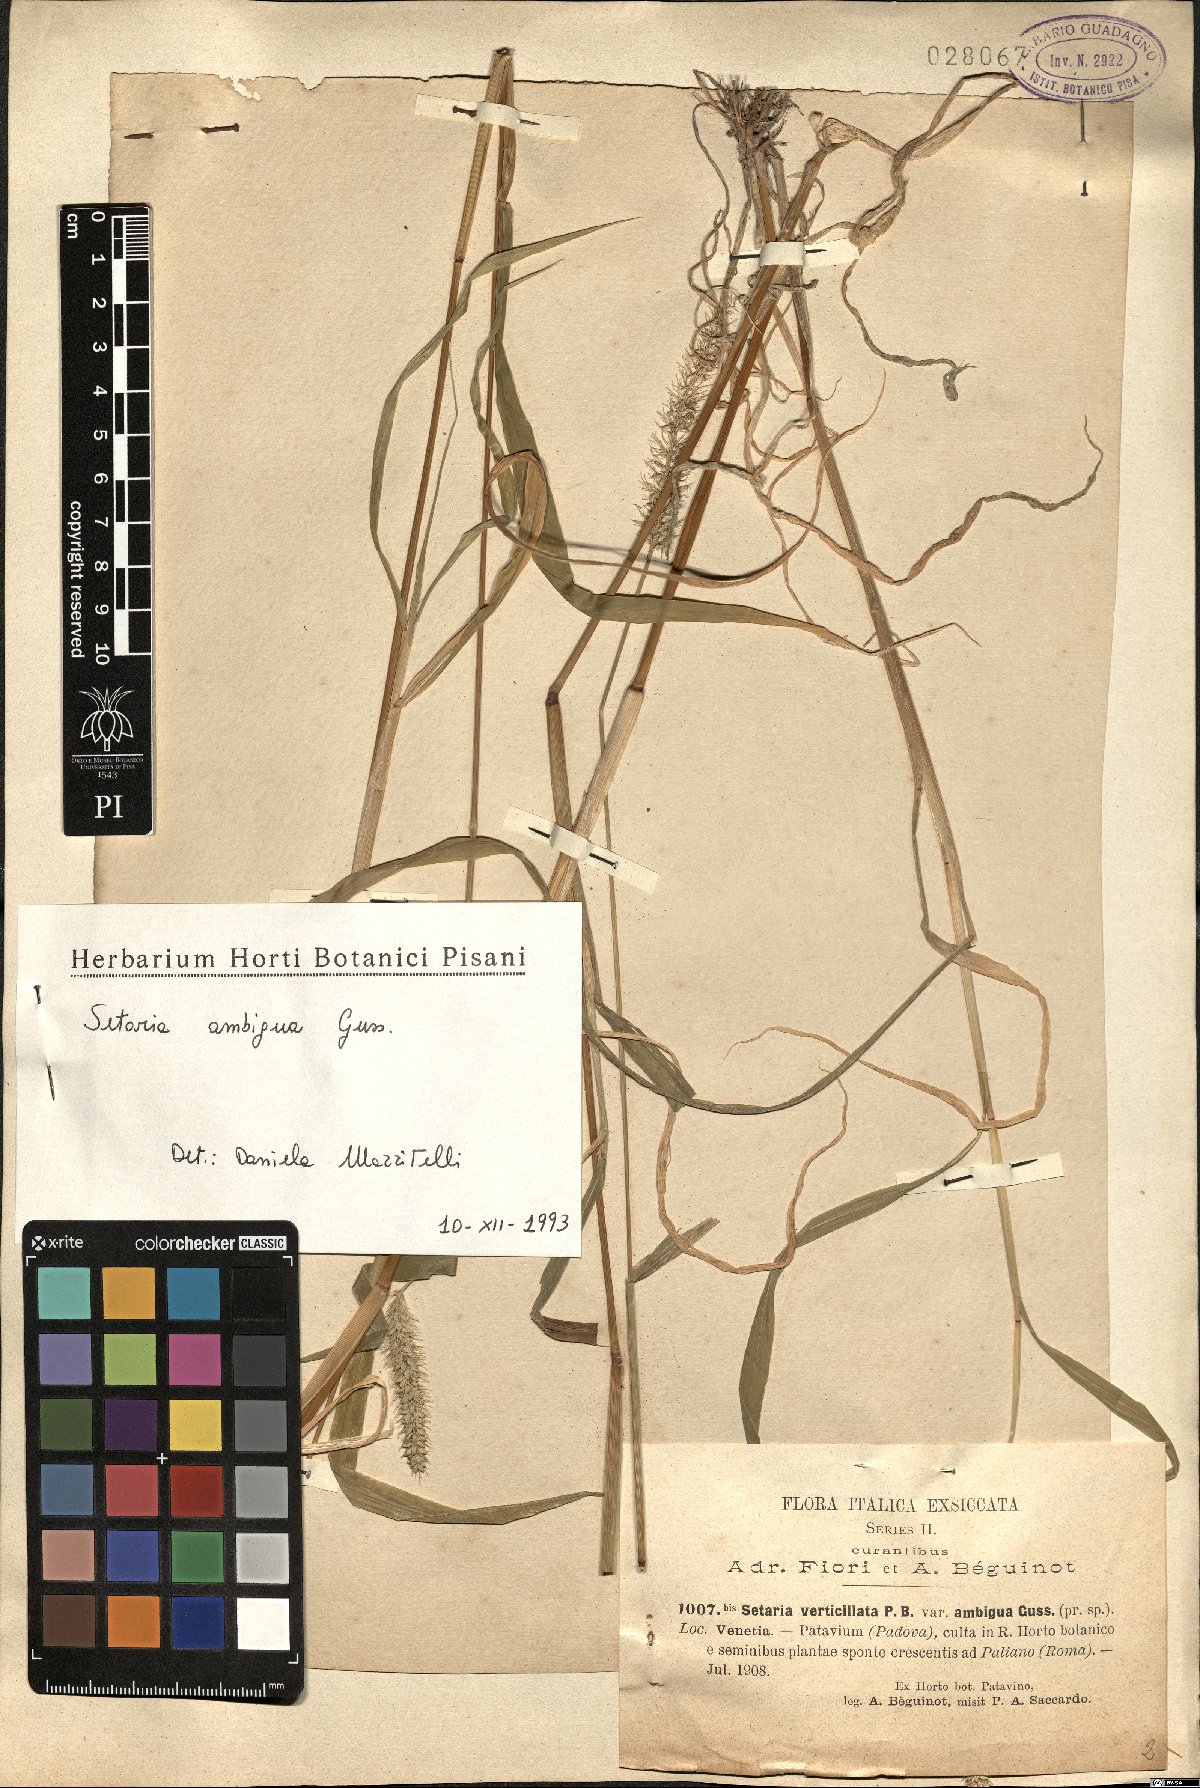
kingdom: Plantae
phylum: Tracheophyta
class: Liliopsida
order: Poales
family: Poaceae
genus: Setaria
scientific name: Setaria verticillata
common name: Hooked bristlegrass
